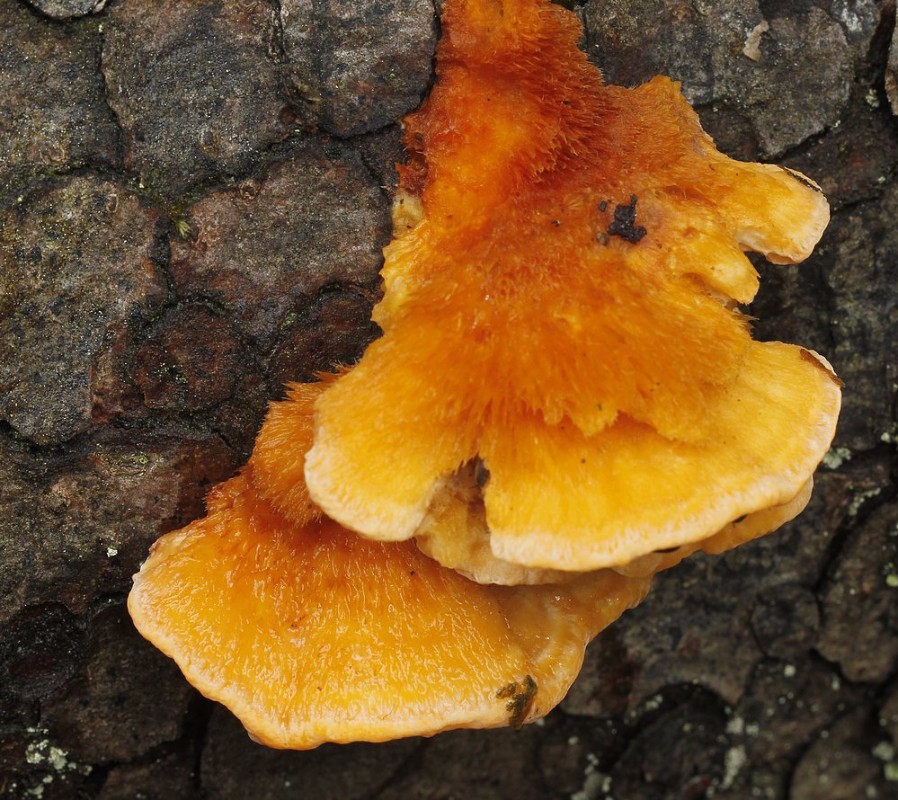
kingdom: Fungi
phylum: Basidiomycota
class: Agaricomycetes
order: Polyporales
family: Pycnoporellaceae
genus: Pycnoporellus
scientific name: Pycnoporellus fulgens
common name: flammeporesvamp
